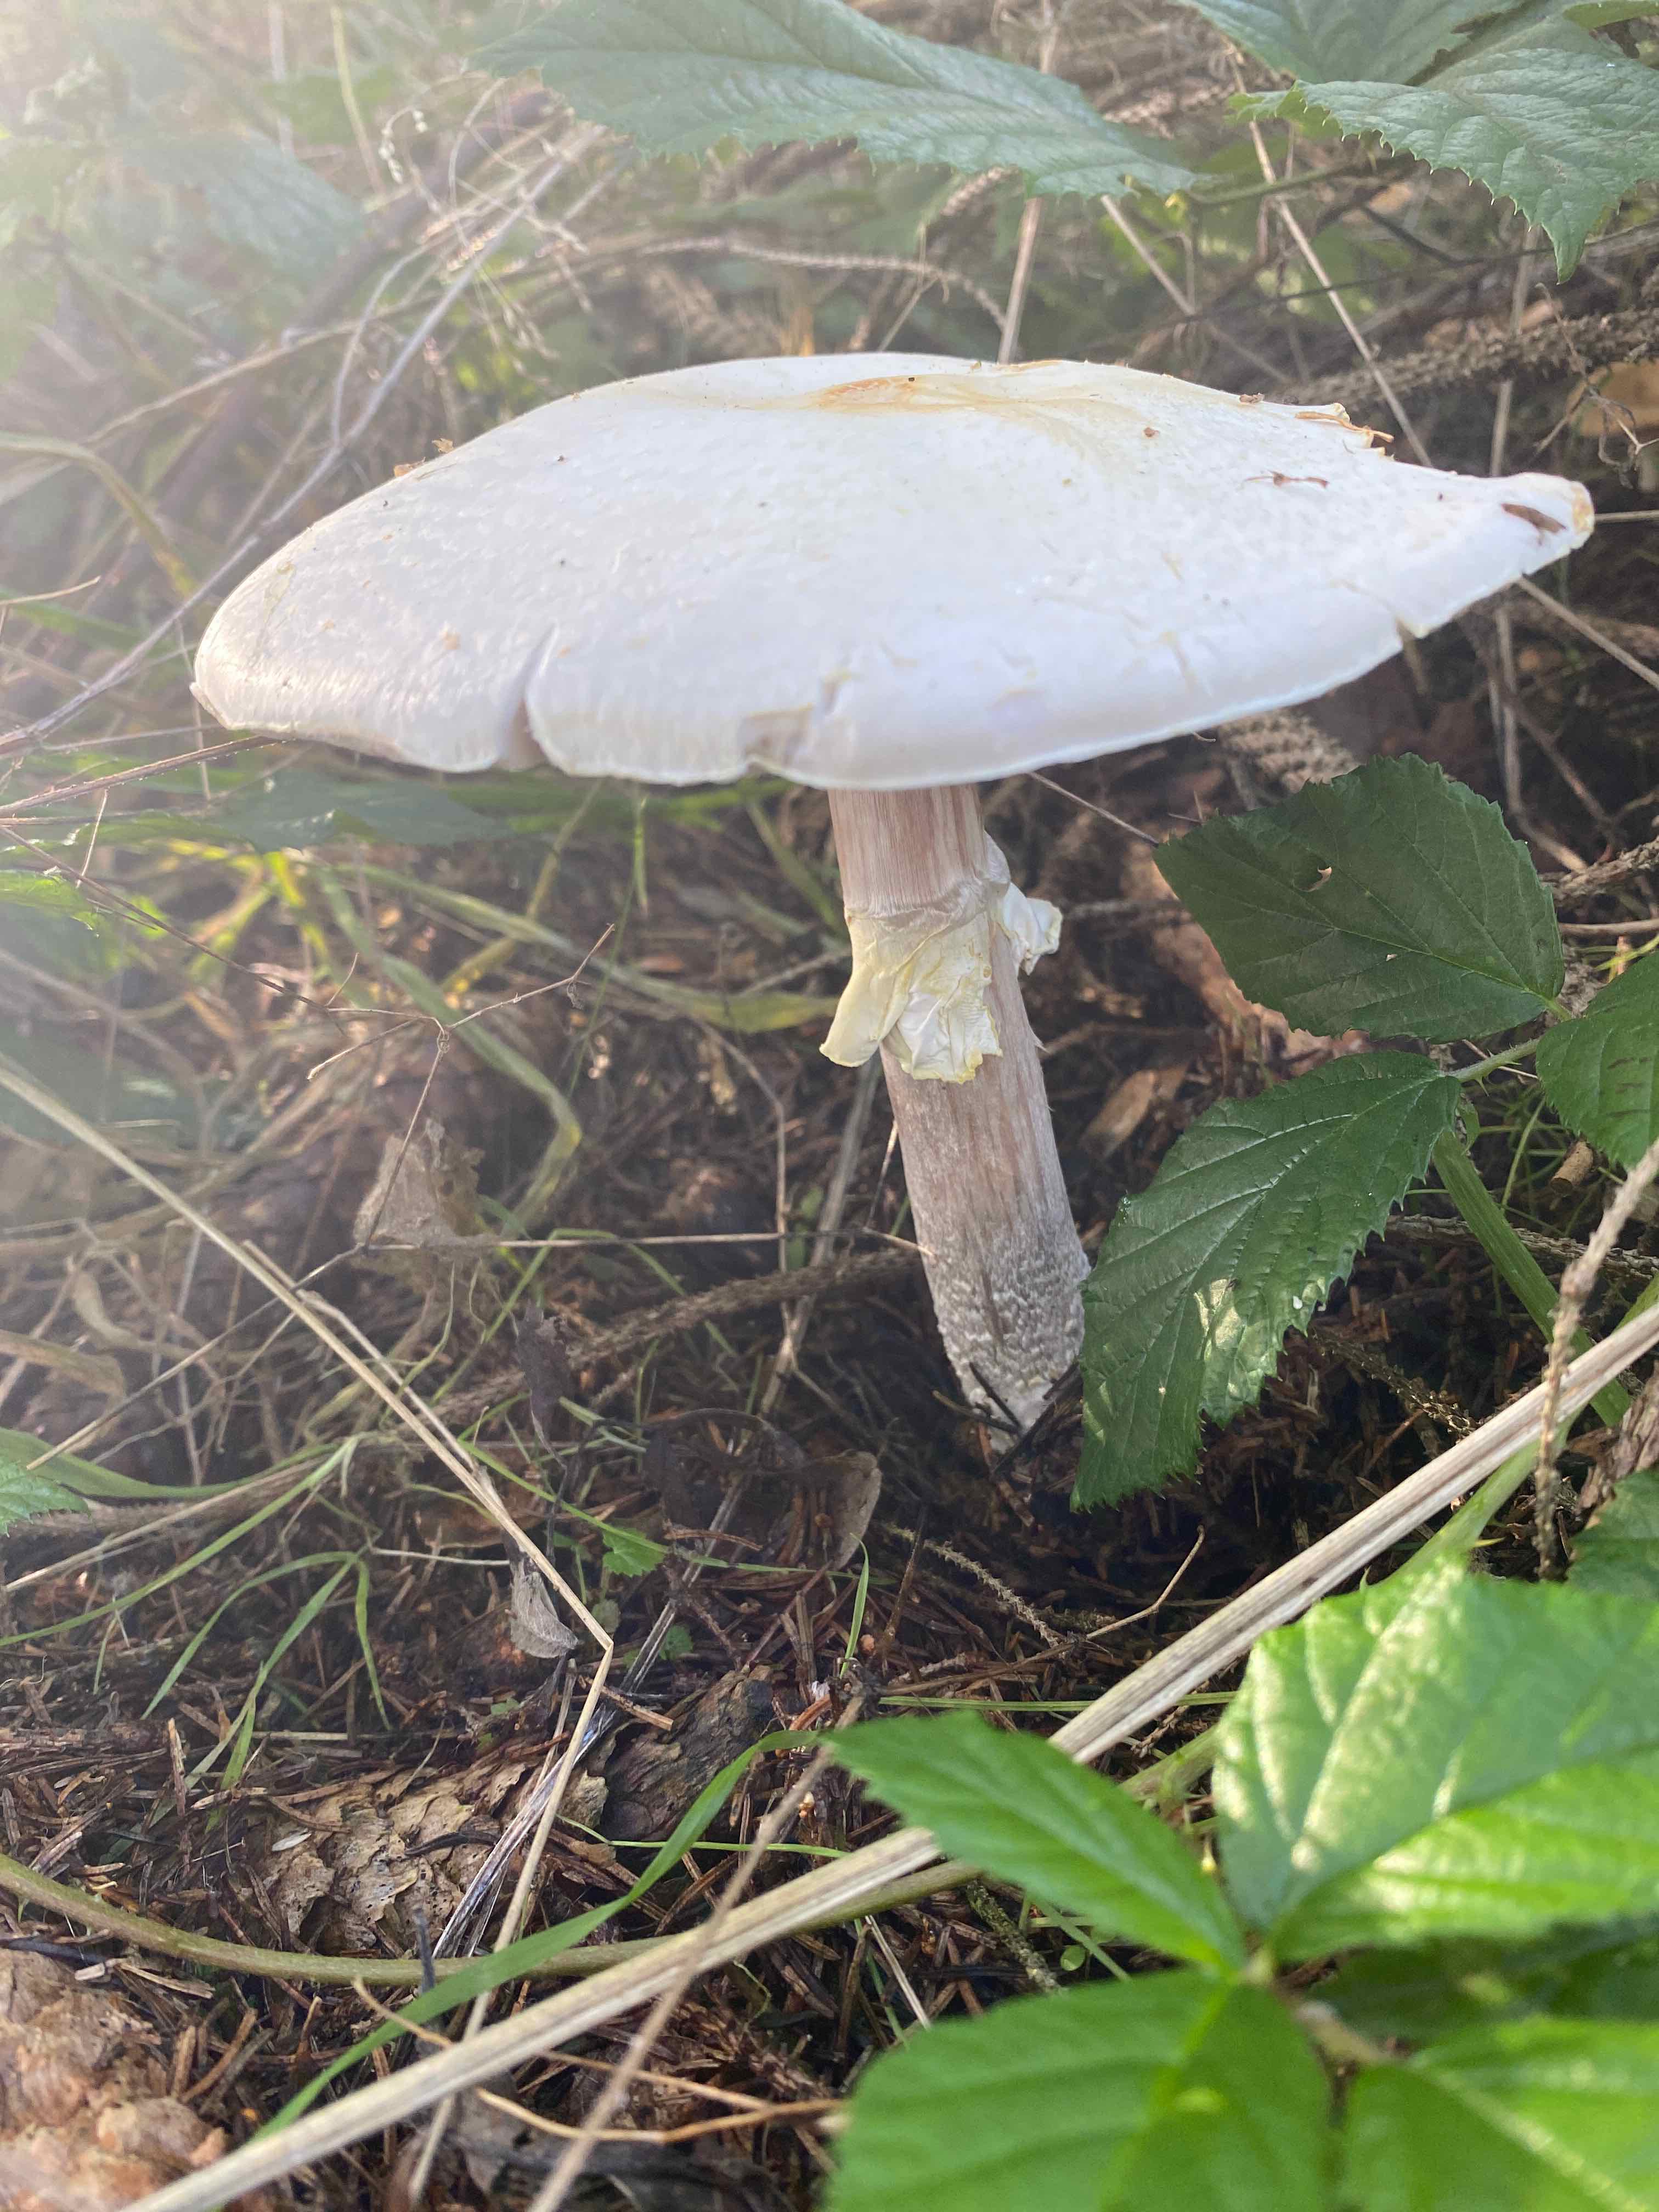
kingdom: Fungi
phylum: Basidiomycota
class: Agaricomycetes
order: Agaricales
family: Agaricaceae
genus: Agaricus
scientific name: Agaricus
